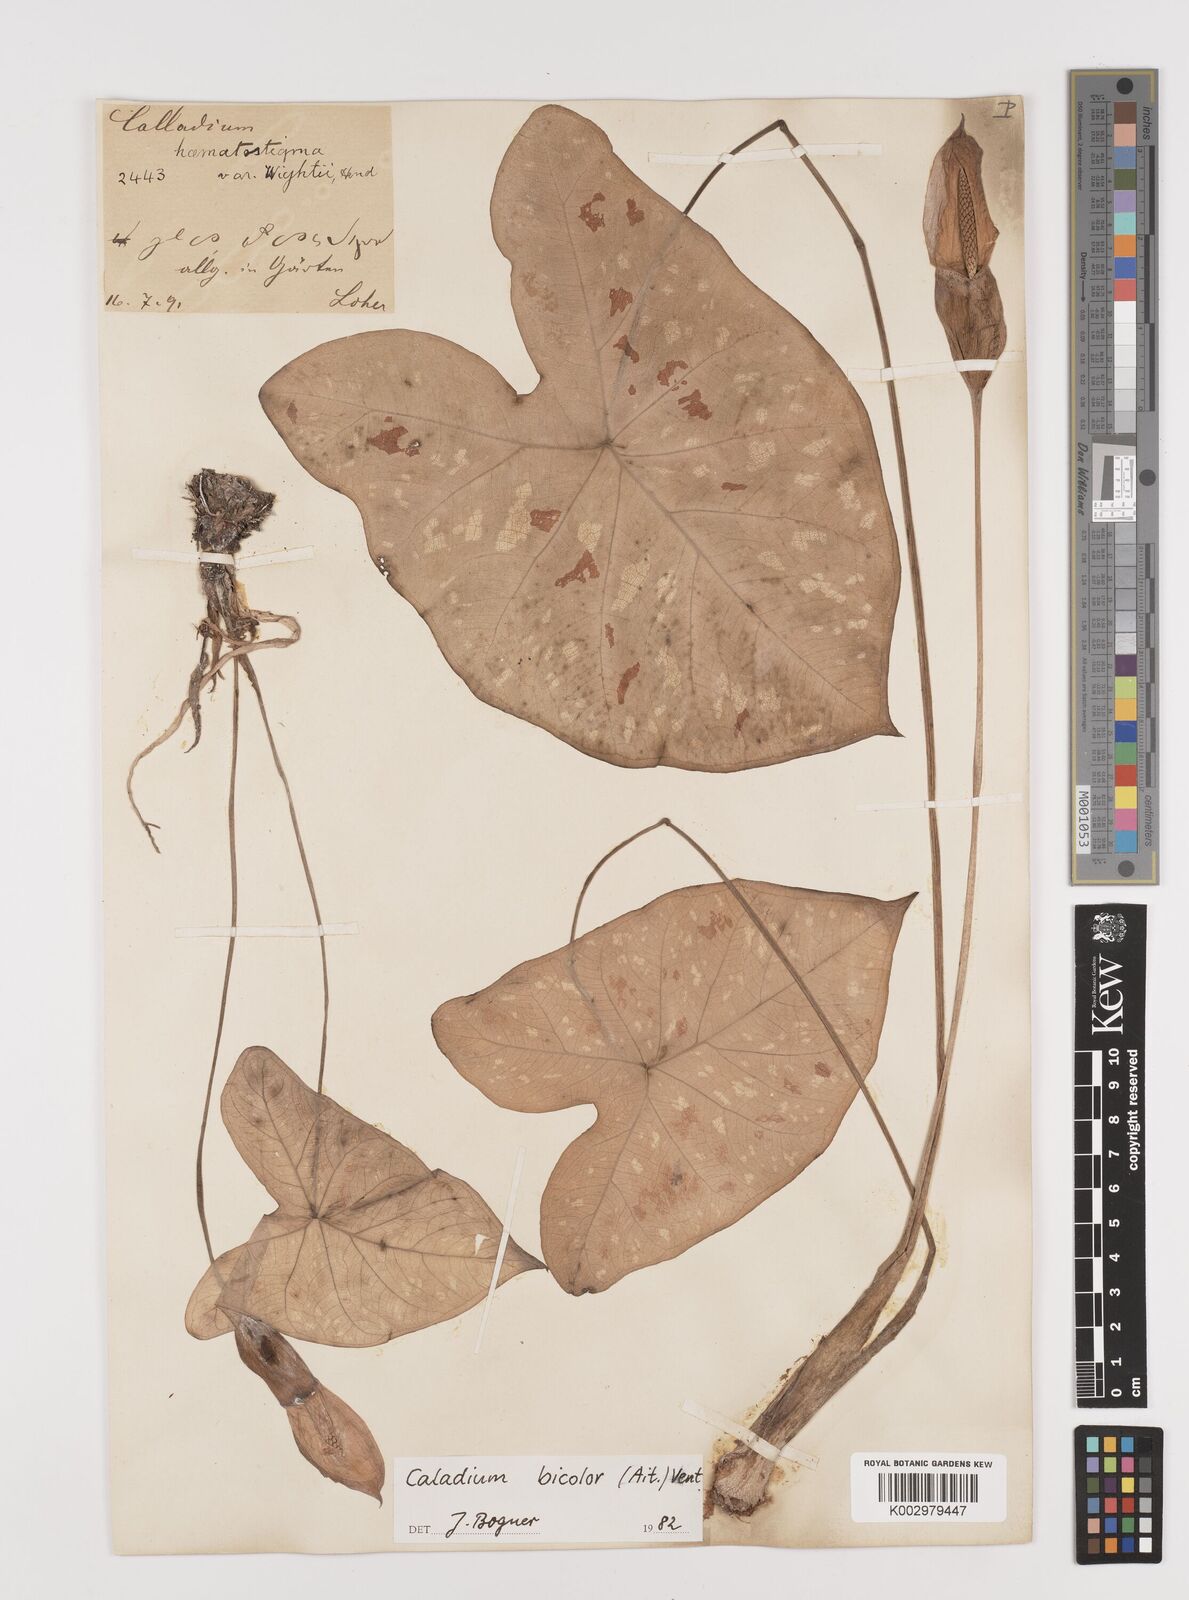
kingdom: Plantae
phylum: Tracheophyta
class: Liliopsida
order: Alismatales
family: Araceae
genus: Caladium
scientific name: Caladium bicolor
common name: Artist's pallet
